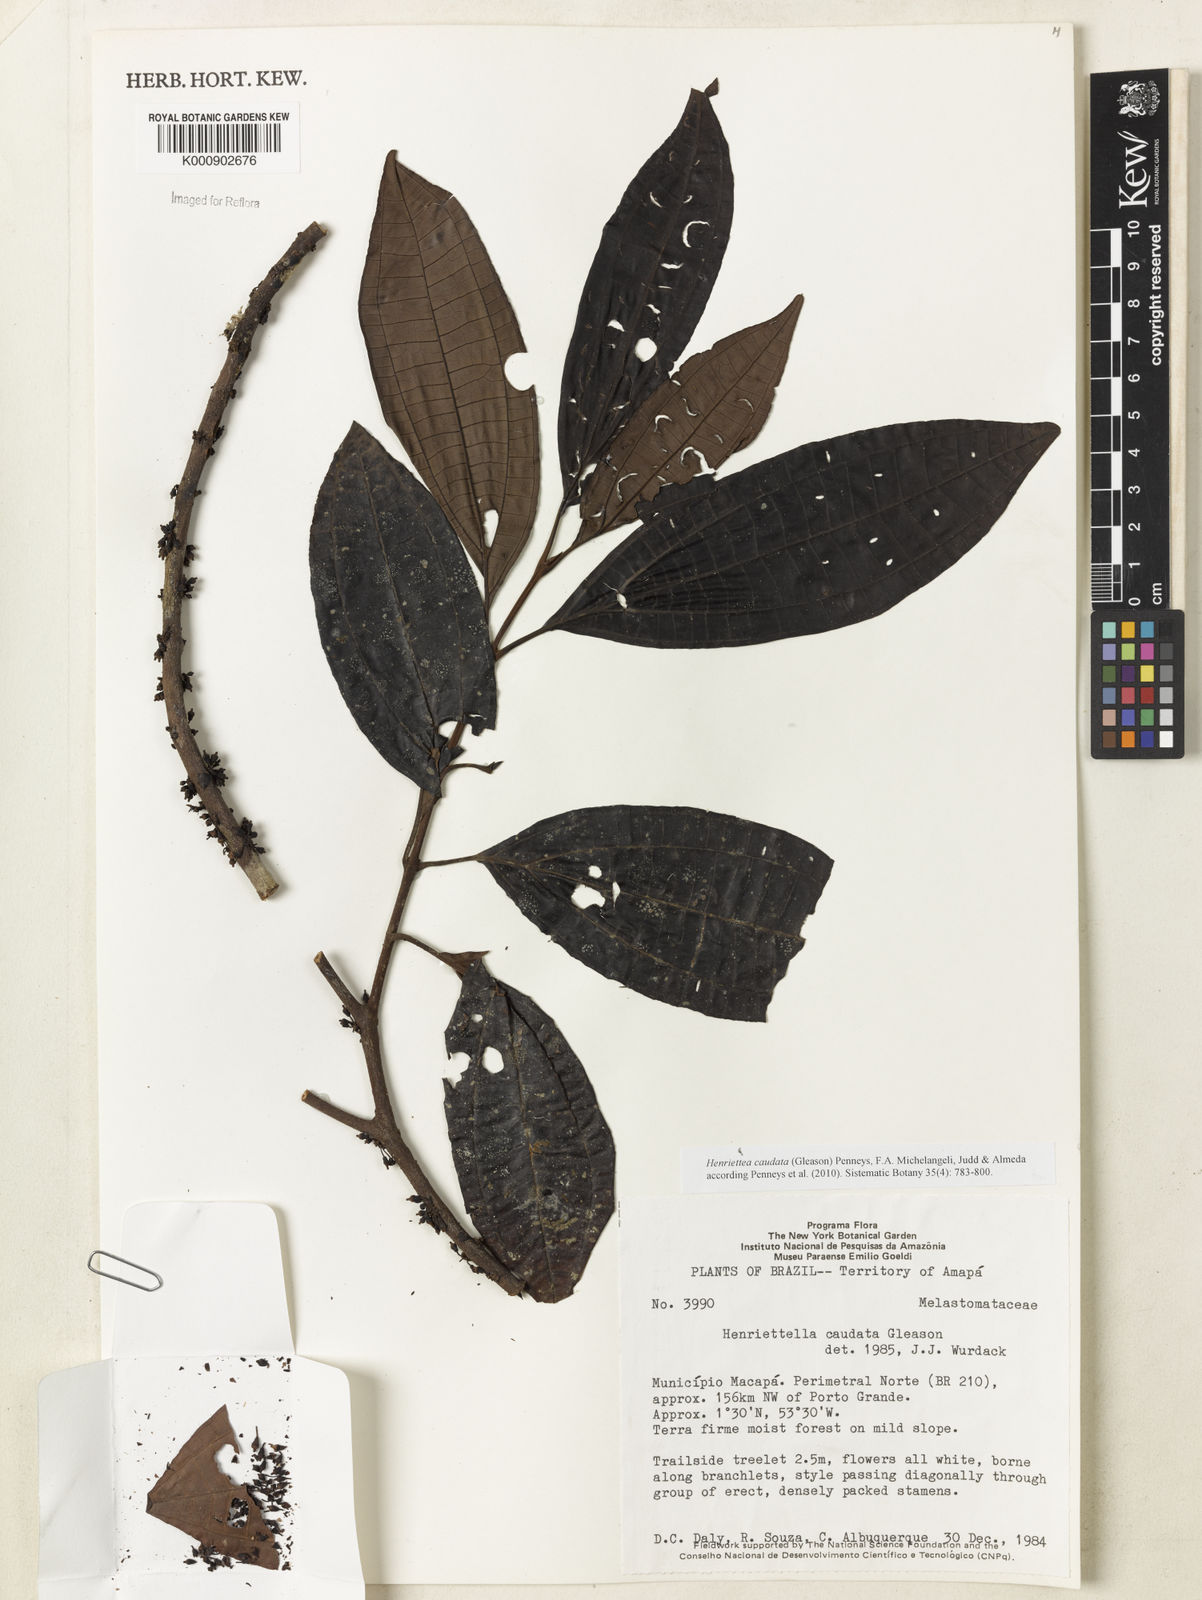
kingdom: Plantae
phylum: Tracheophyta
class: Magnoliopsida
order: Myrtales
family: Melastomataceae
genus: Henriettea
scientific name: Henriettea caudata
